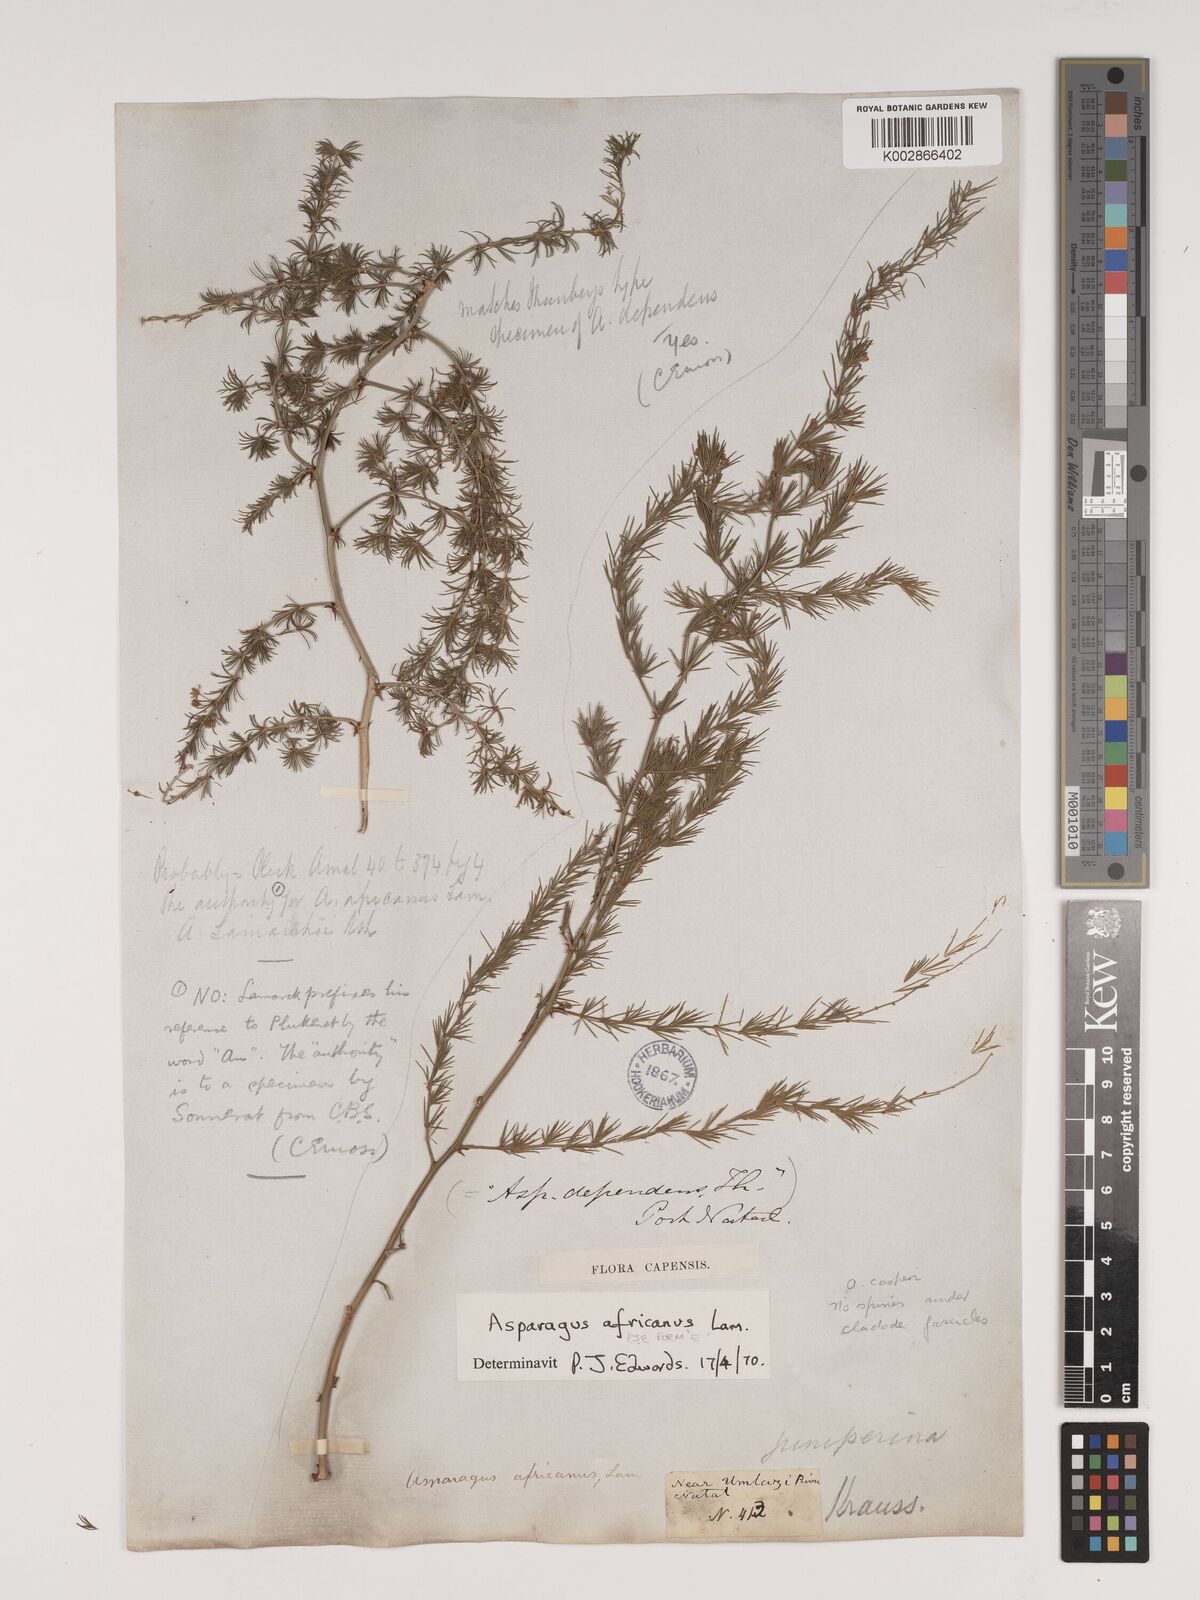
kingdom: Plantae
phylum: Tracheophyta
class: Liliopsida
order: Asparagales
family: Asparagaceae
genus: Asparagus
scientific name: Asparagus africanus
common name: Asparagus-fern
